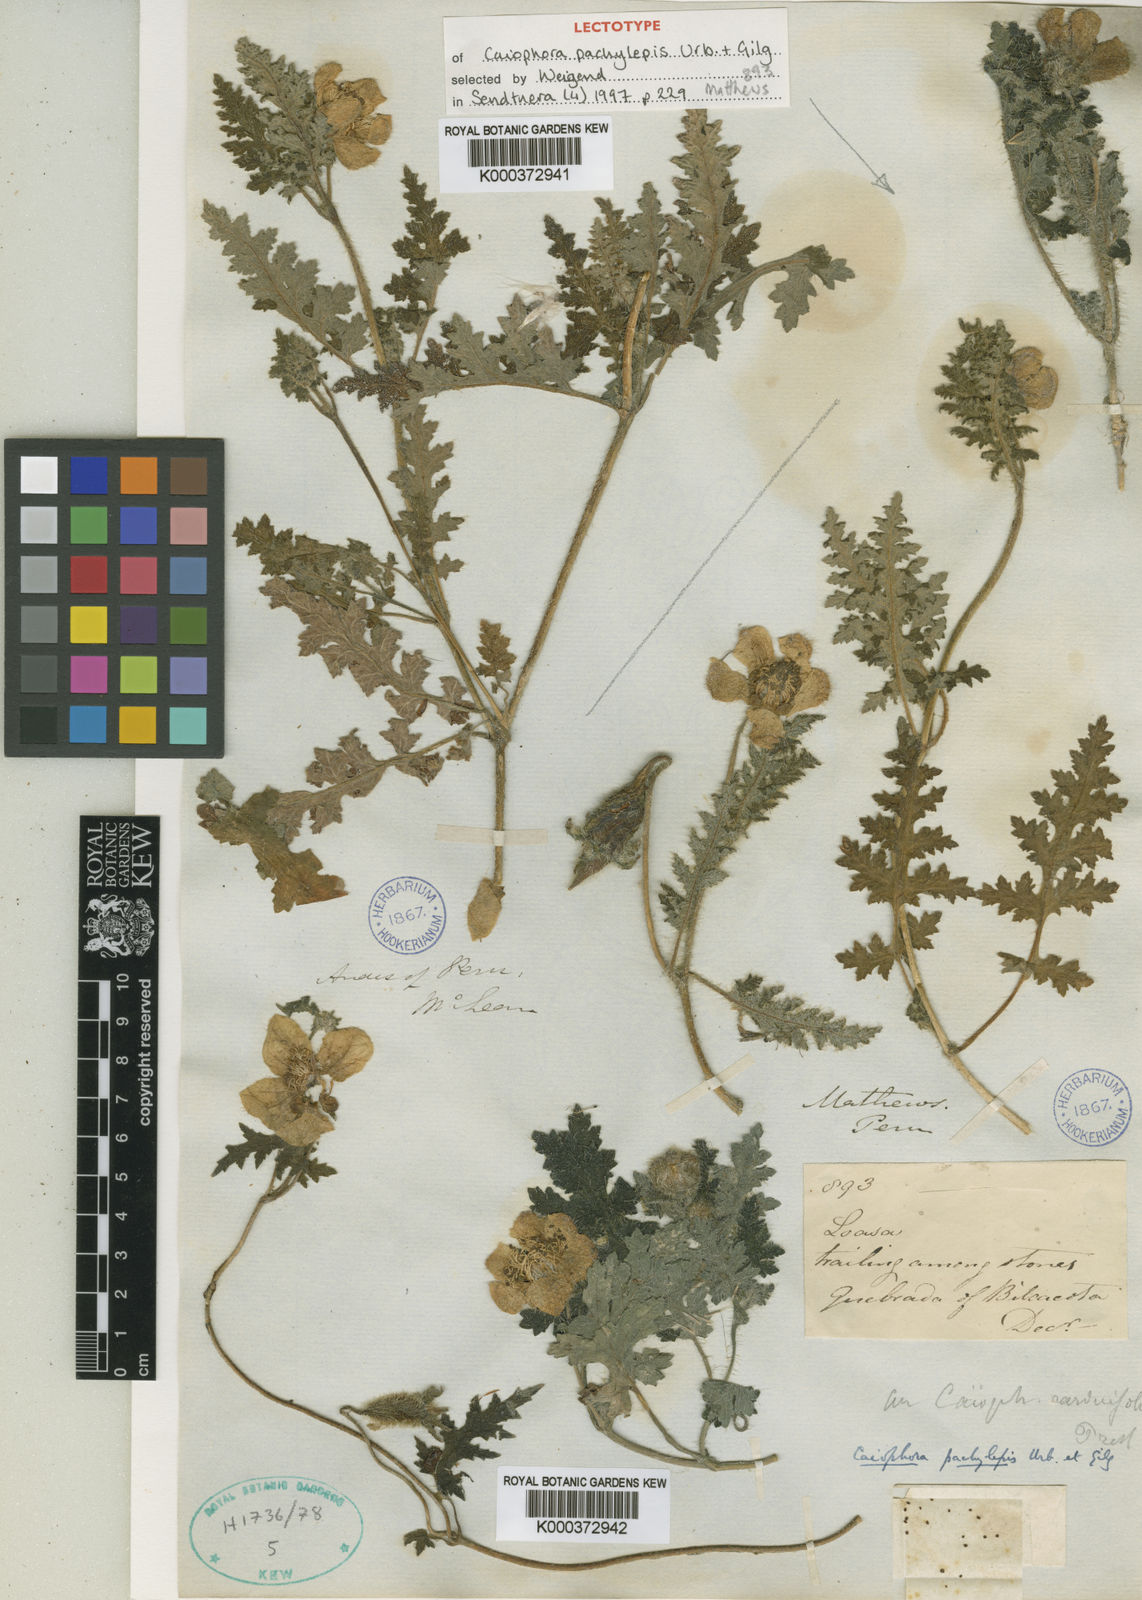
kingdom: Plantae
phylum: Tracheophyta
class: Magnoliopsida
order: Cornales
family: Loasaceae
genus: Caiophora
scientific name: Caiophora cirsiifolia
